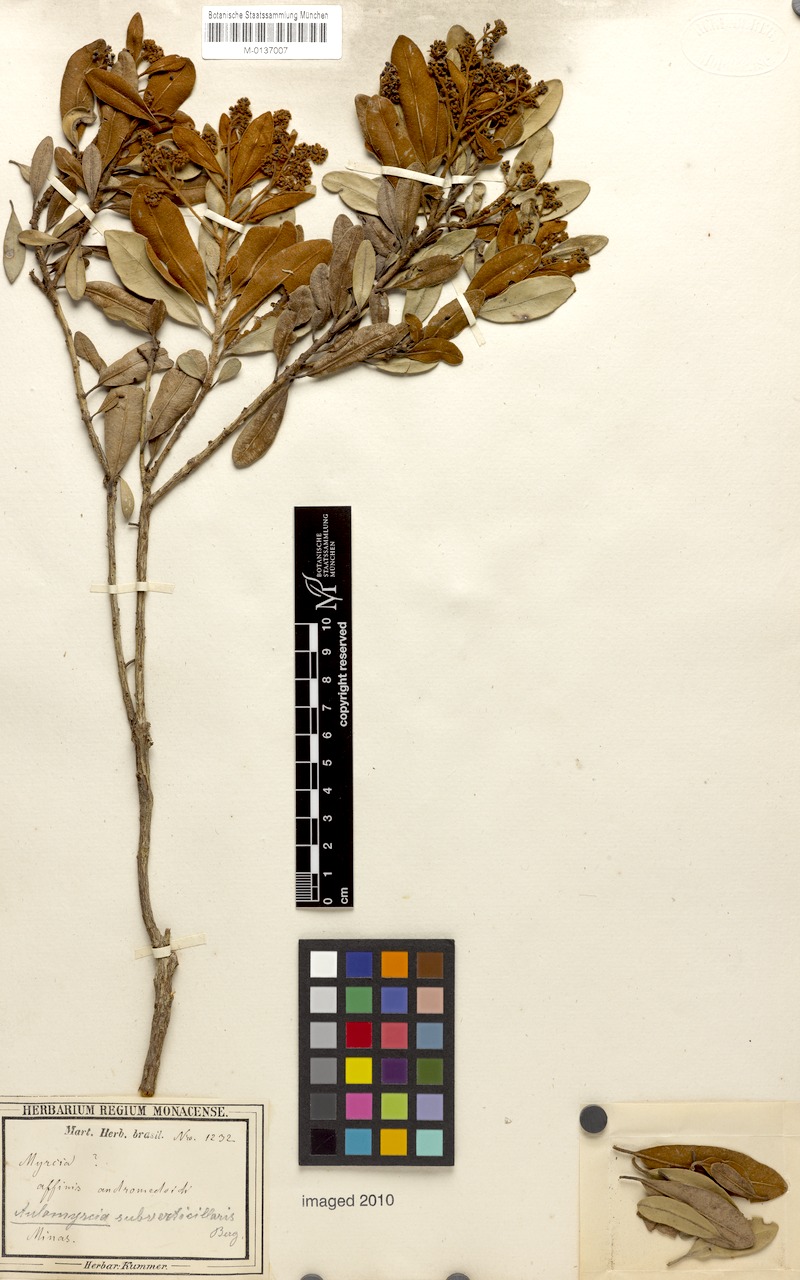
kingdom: Plantae
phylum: Tracheophyta
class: Magnoliopsida
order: Myrtales
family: Myrtaceae
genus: Myrcia
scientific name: Myrcia subverticillaris
